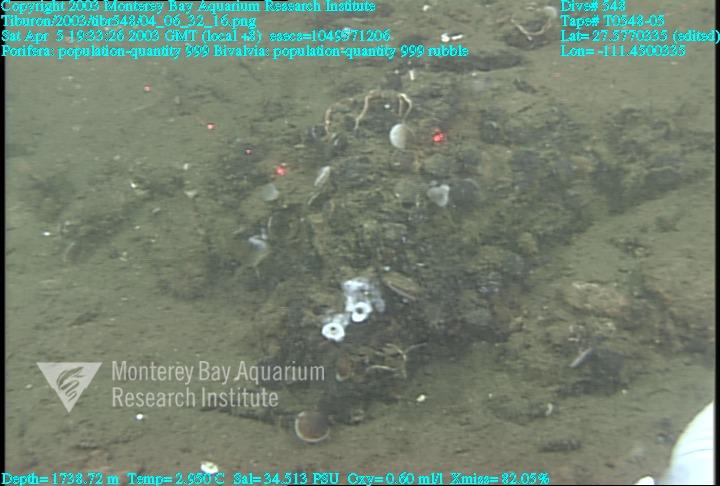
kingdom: Animalia
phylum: Porifera
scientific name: Porifera
